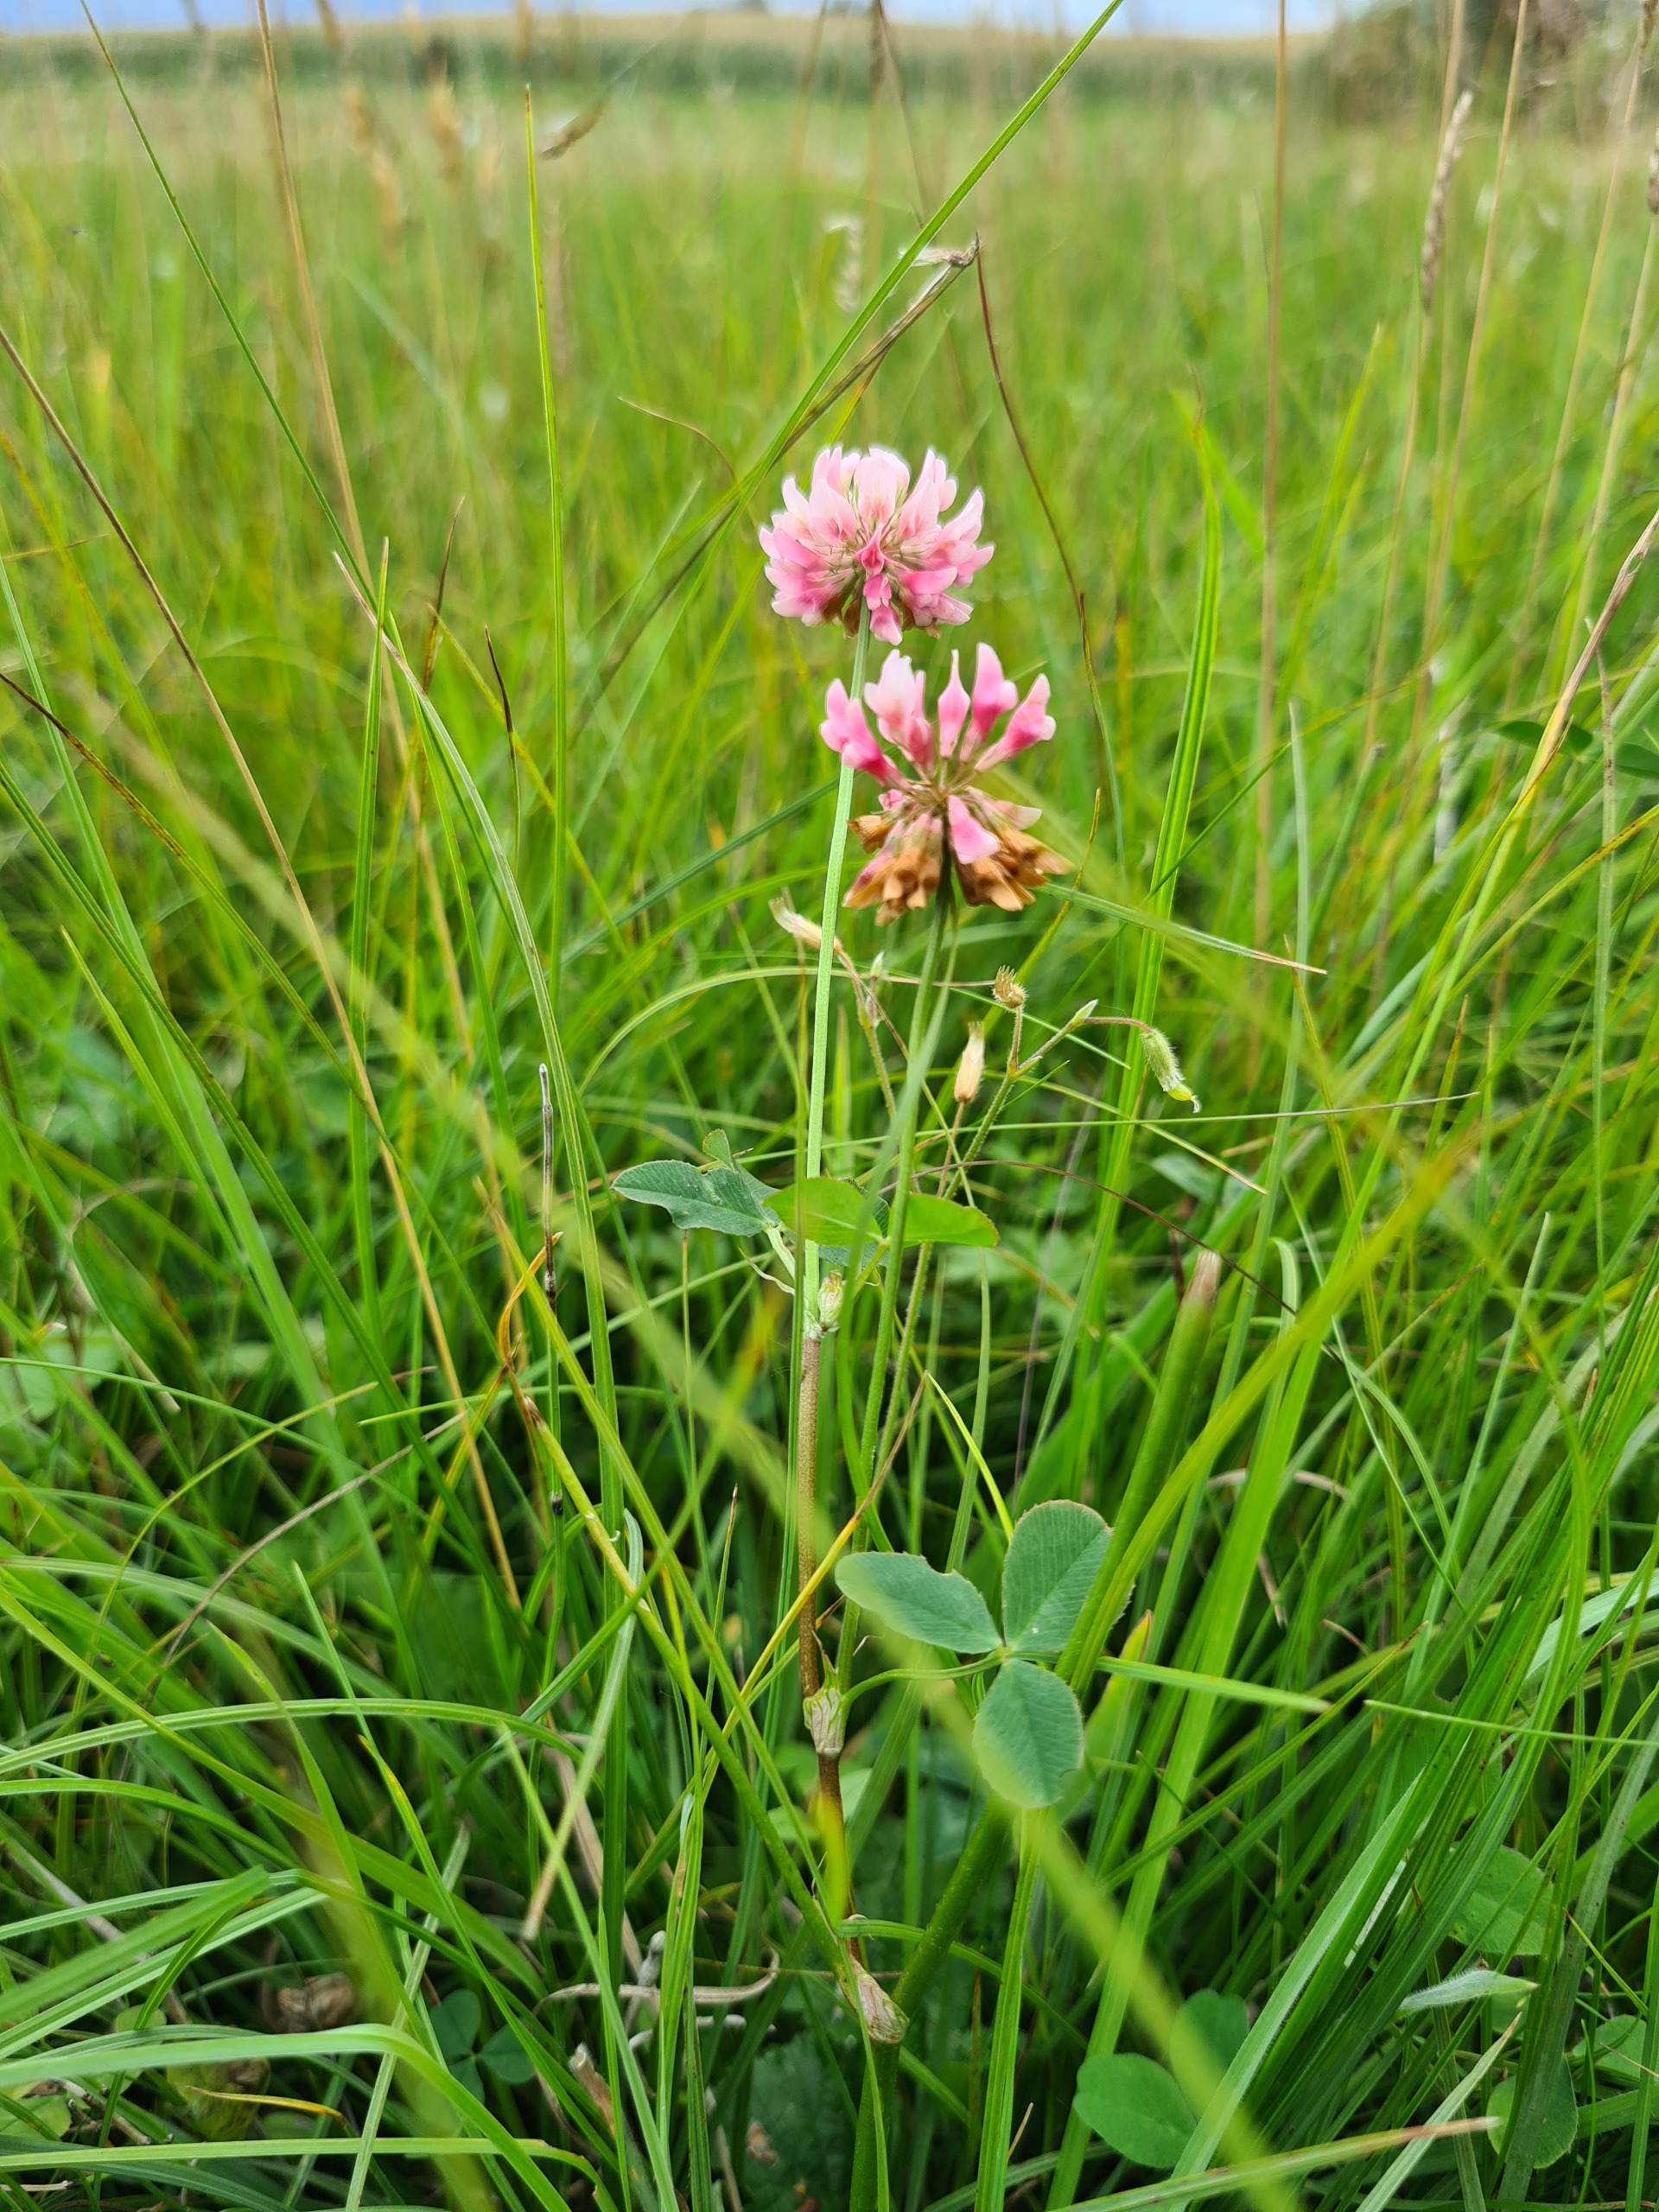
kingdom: Plantae
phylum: Tracheophyta
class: Magnoliopsida
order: Fabales
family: Fabaceae
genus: Trifolium
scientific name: Trifolium hybridum
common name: Alsike-kløver
